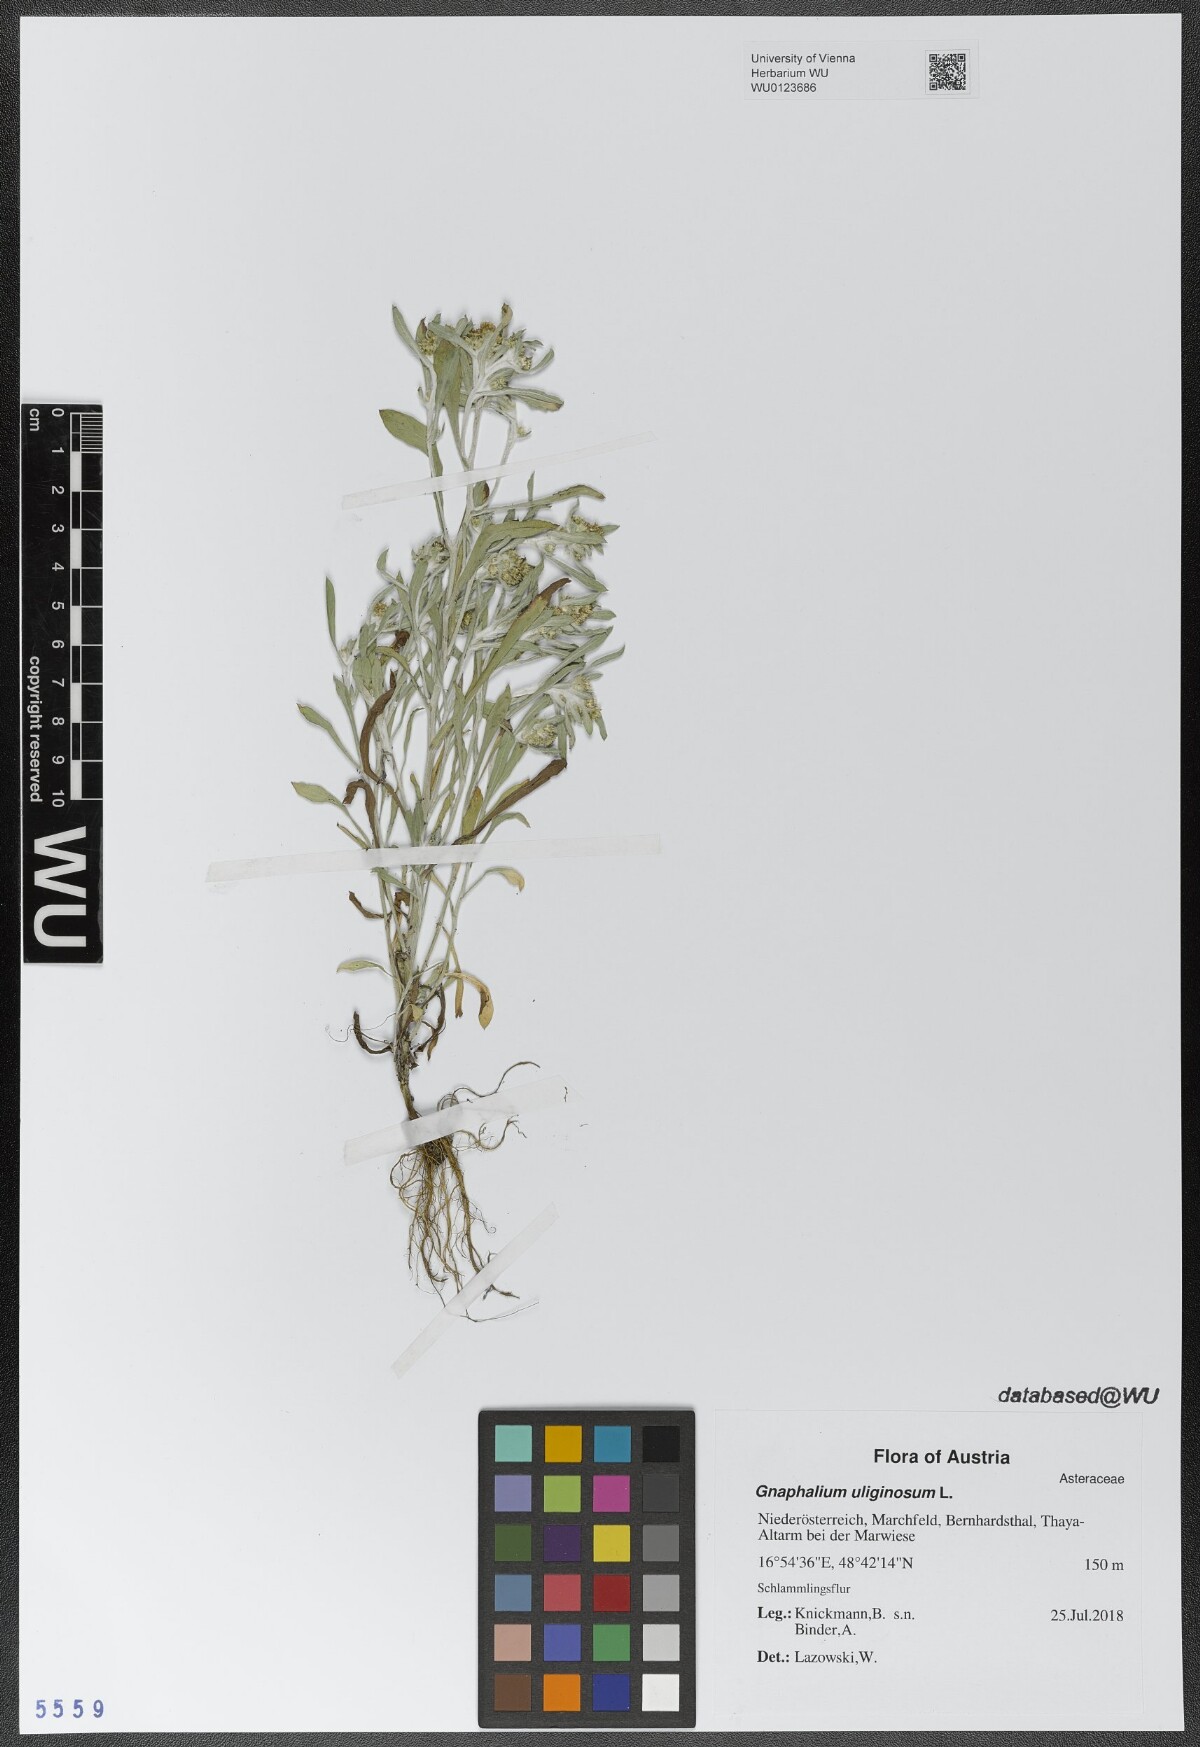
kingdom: Plantae
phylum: Tracheophyta
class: Magnoliopsida
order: Asterales
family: Asteraceae
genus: Gnaphalium
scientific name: Gnaphalium uliginosum
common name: Marsh cudweed
